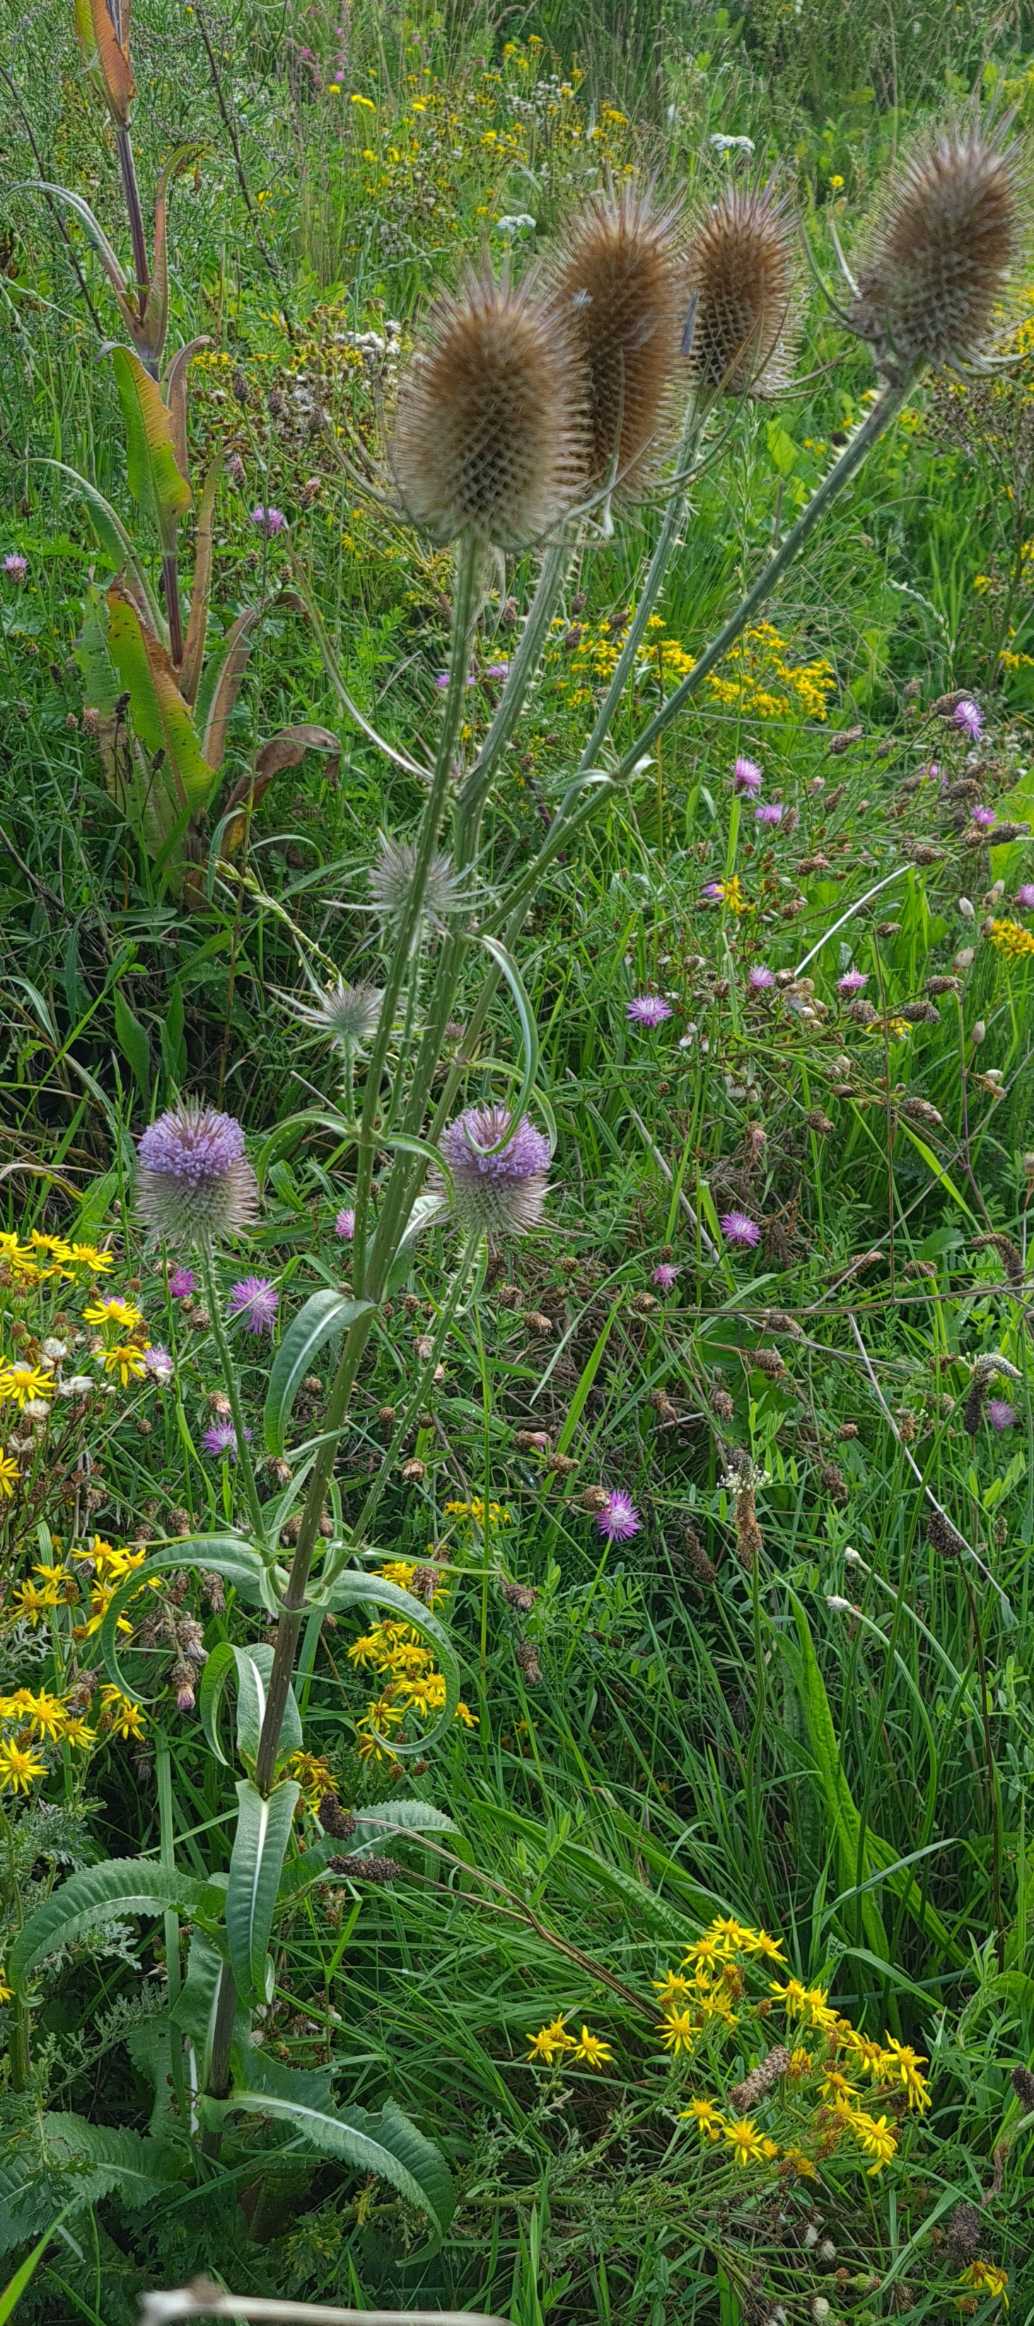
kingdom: Plantae
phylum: Tracheophyta
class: Magnoliopsida
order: Dipsacales
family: Caprifoliaceae
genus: Dipsacus
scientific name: Dipsacus fullonum
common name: Gærde-kartebolle
